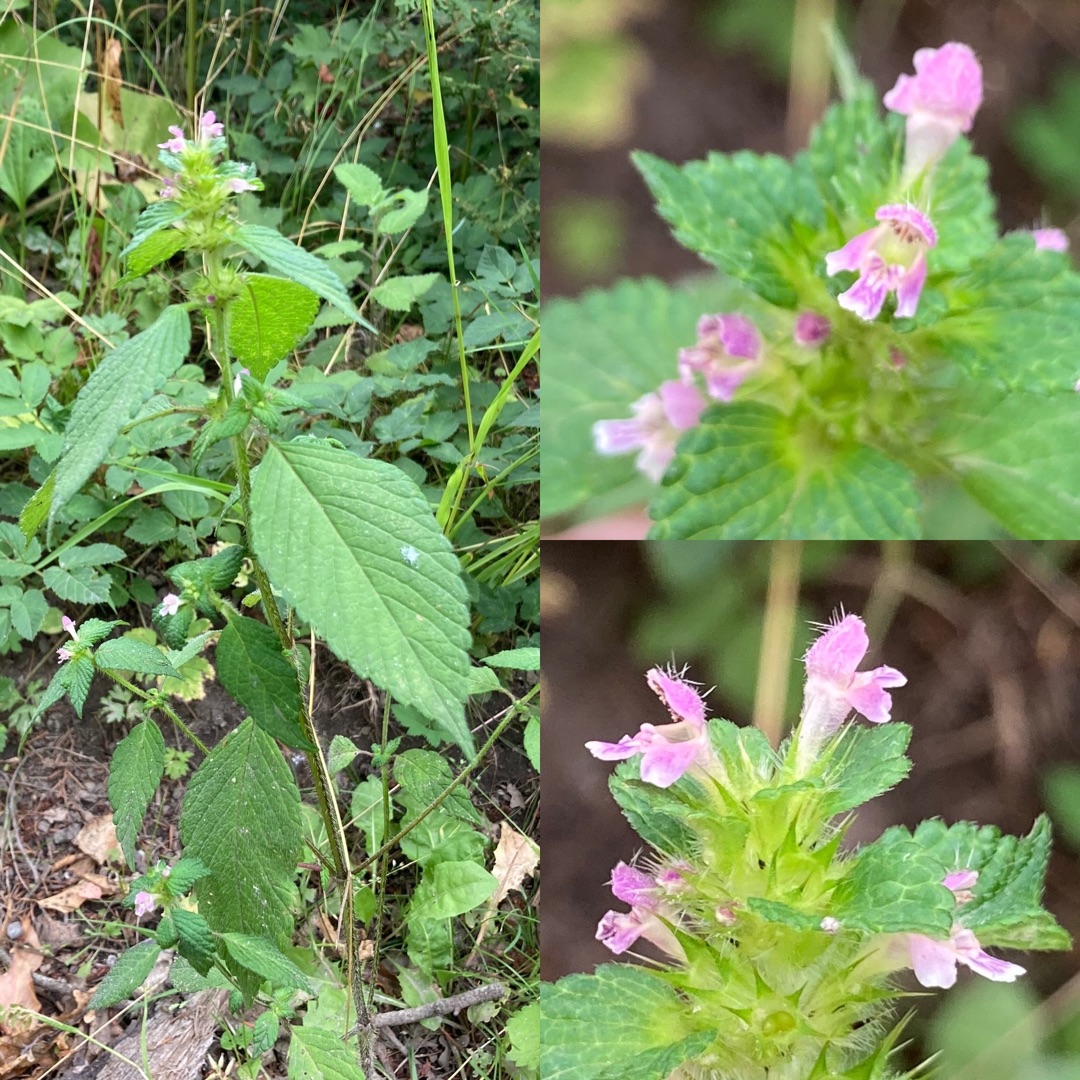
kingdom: Plantae
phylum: Tracheophyta
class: Magnoliopsida
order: Lamiales
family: Lamiaceae
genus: Galeopsis
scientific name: Galeopsis bifida
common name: Skov-hanekro
